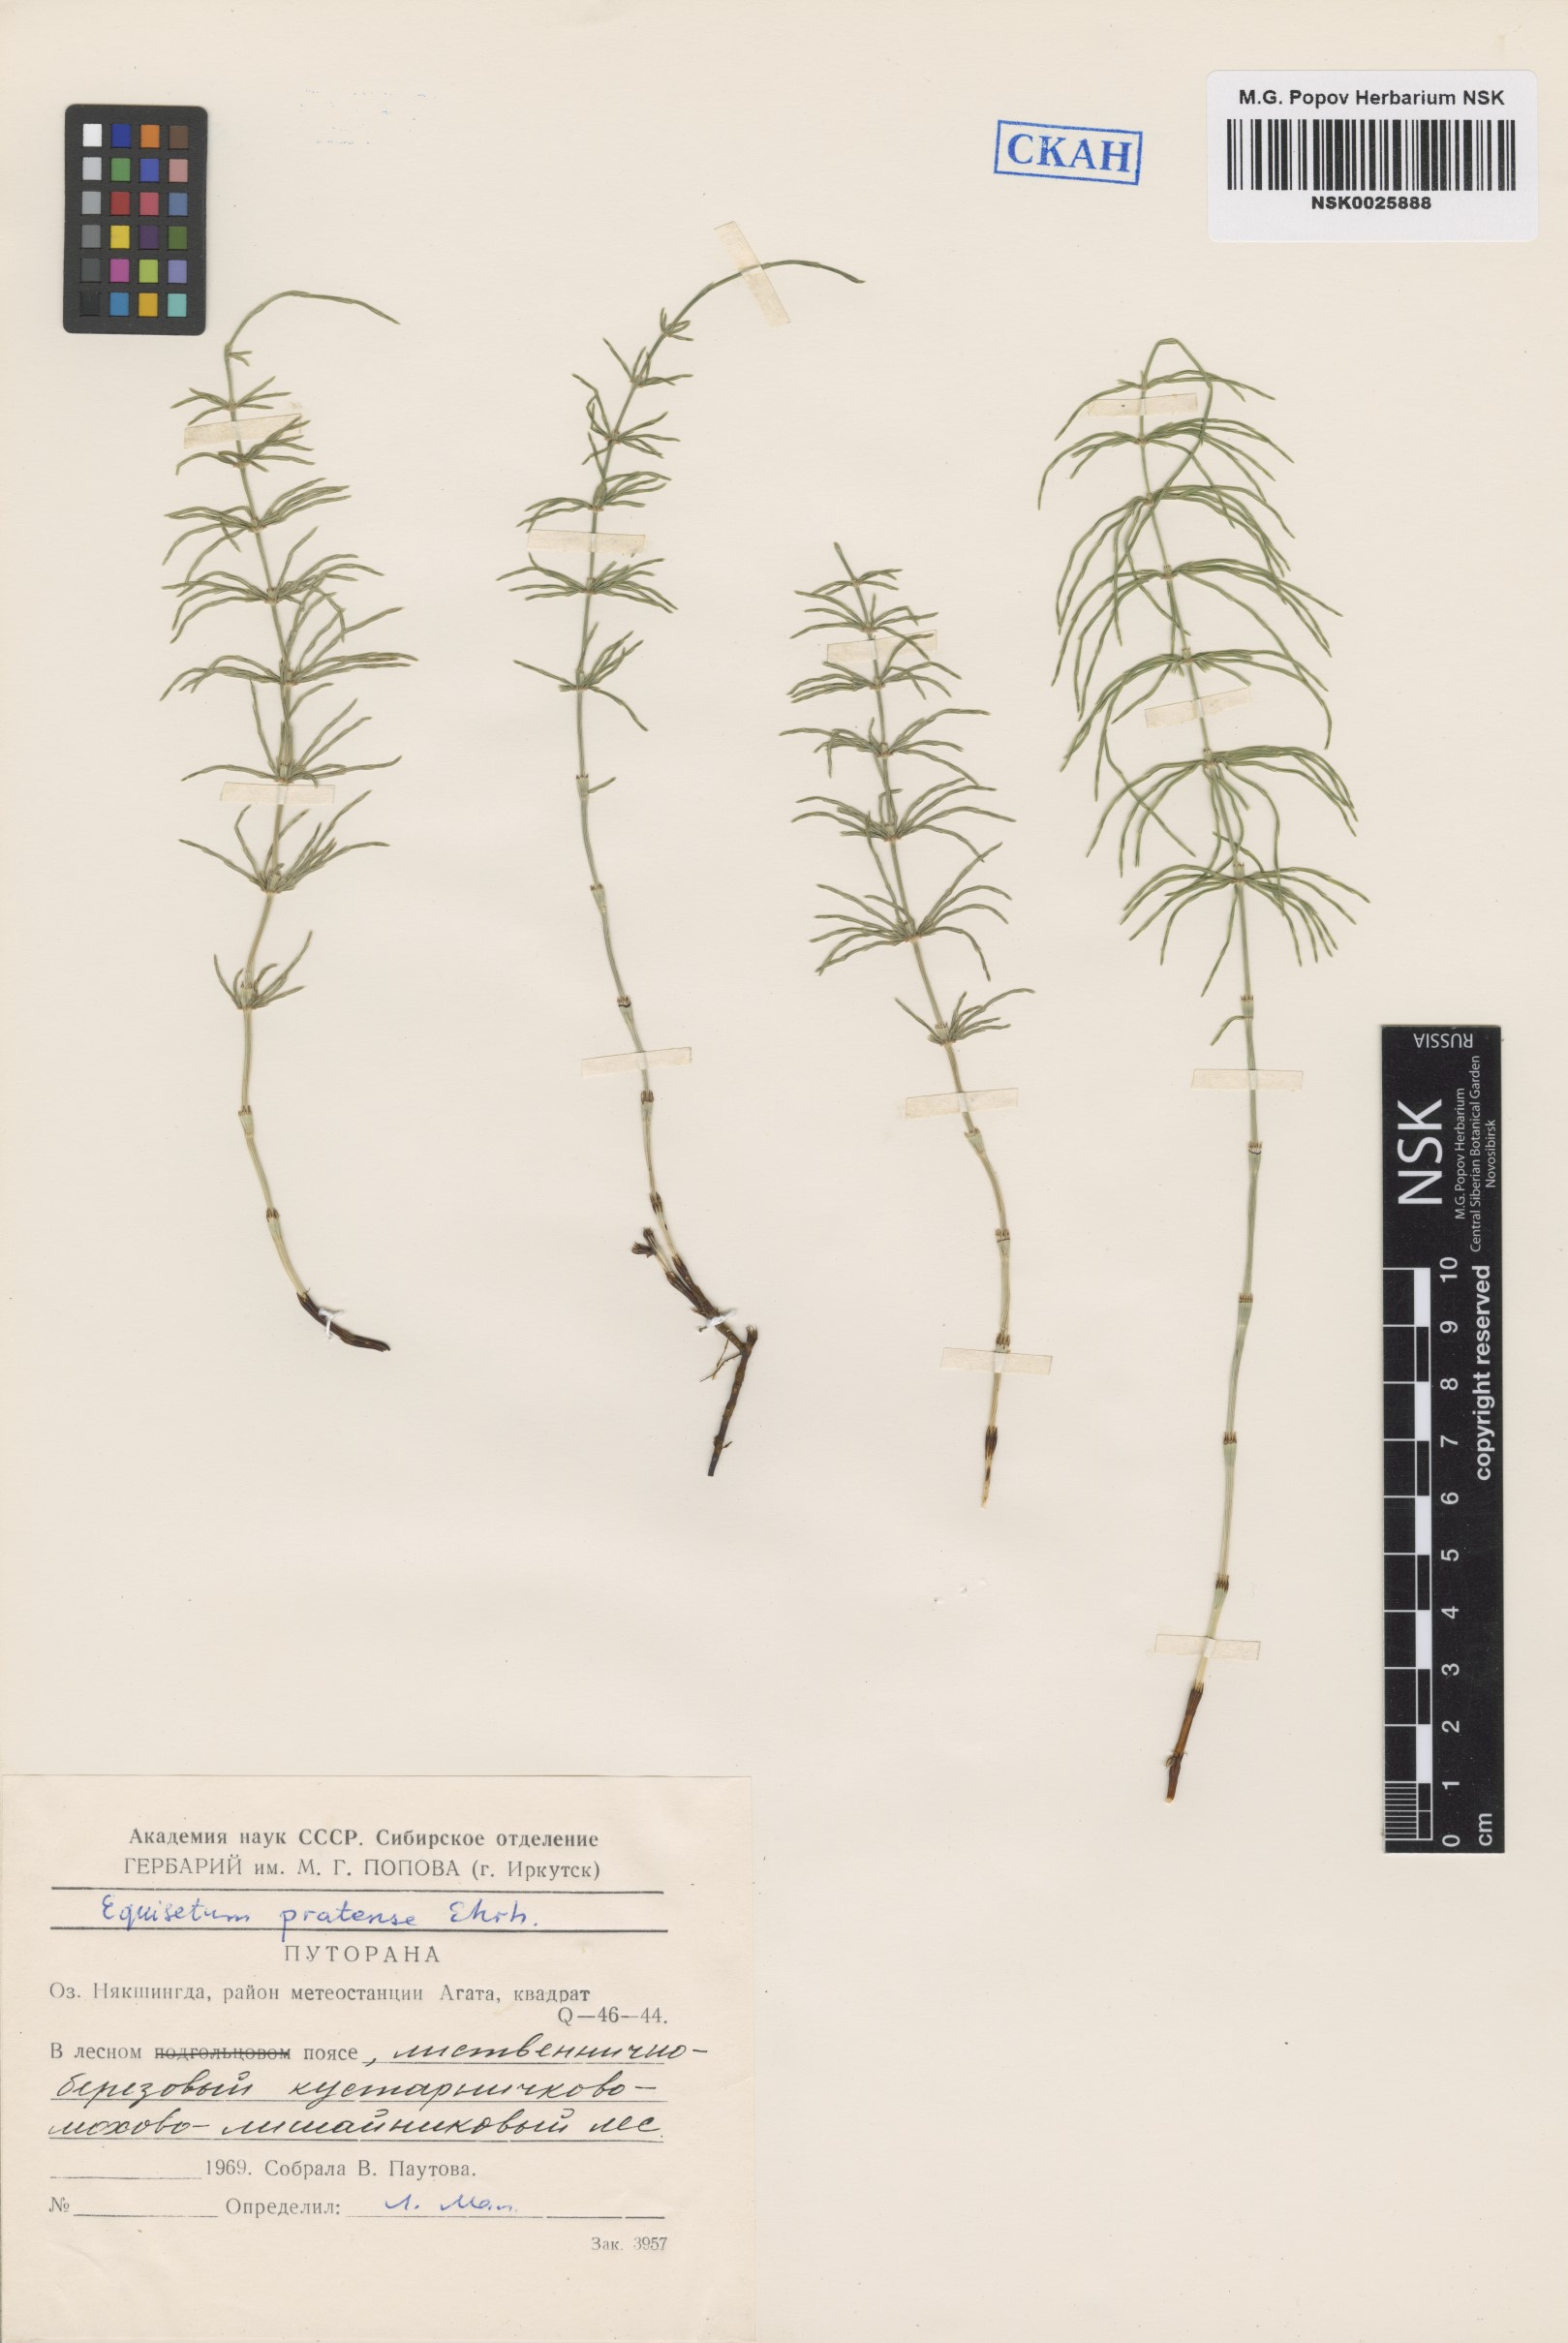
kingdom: Plantae
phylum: Tracheophyta
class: Polypodiopsida
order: Equisetales
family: Equisetaceae
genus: Equisetum
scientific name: Equisetum pratense
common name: Meadow horsetail
